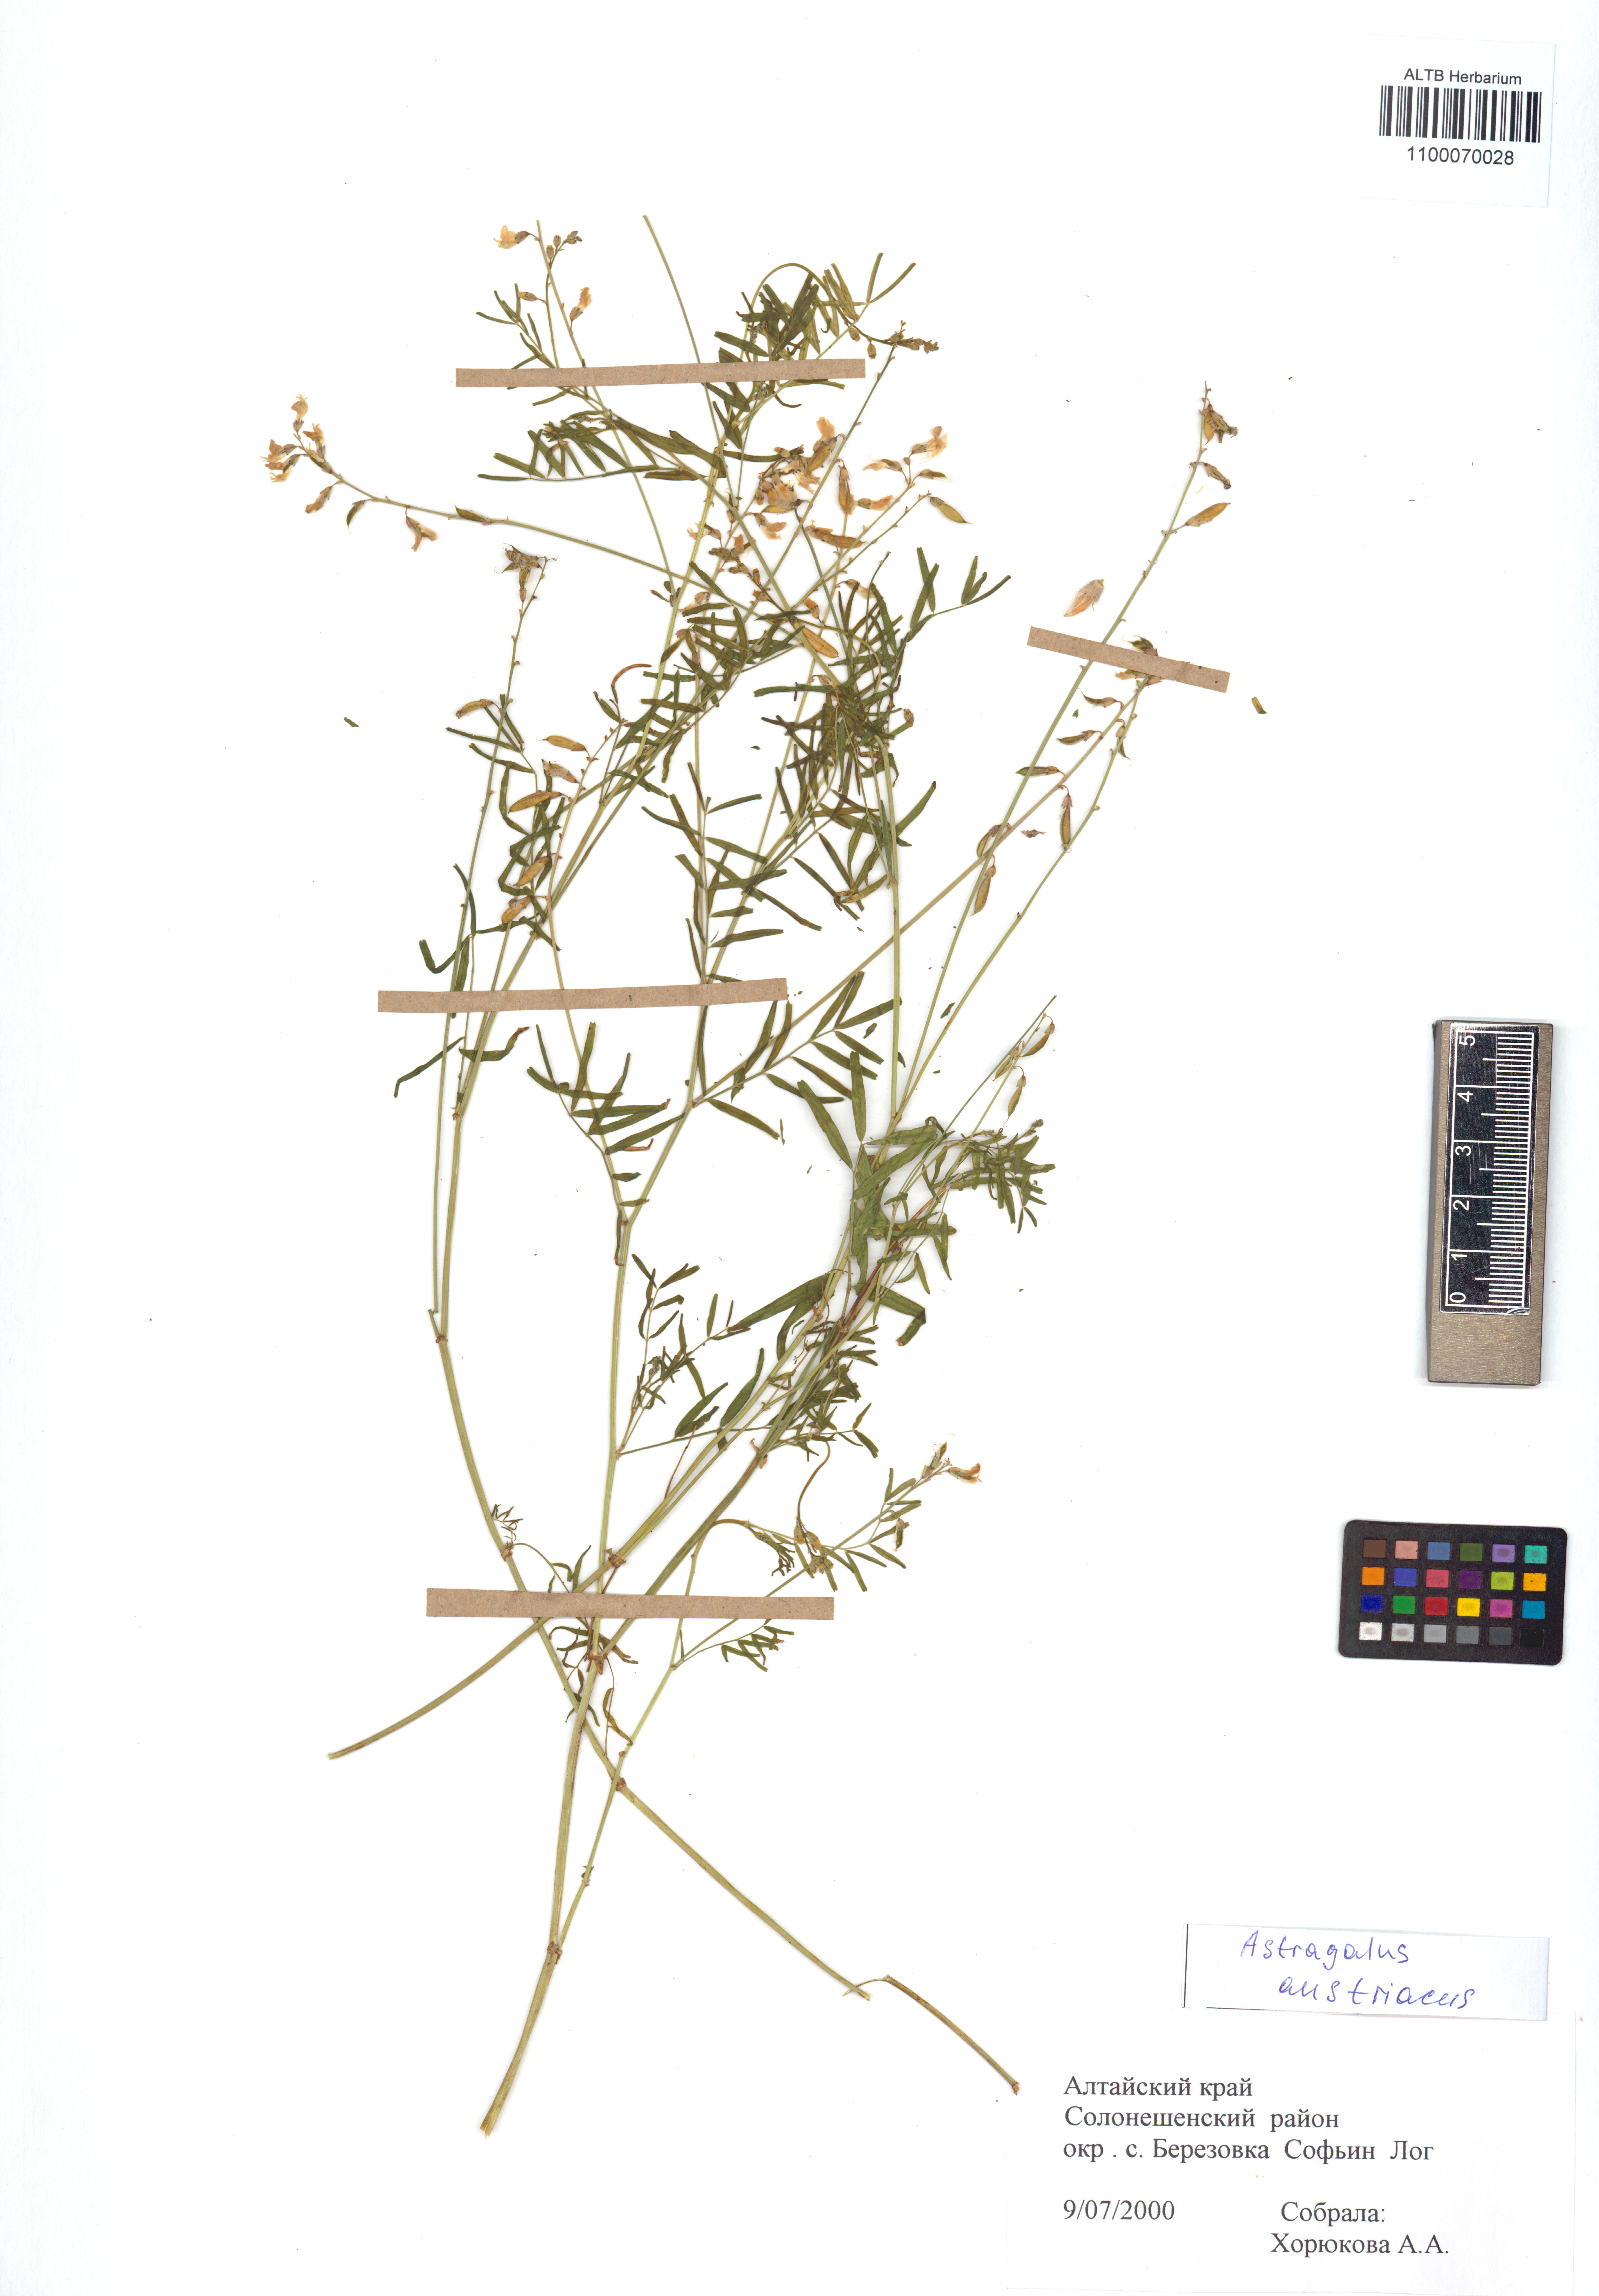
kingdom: Plantae
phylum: Tracheophyta
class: Magnoliopsida
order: Fabales
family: Fabaceae
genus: Astragalus
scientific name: Astragalus austriacus
